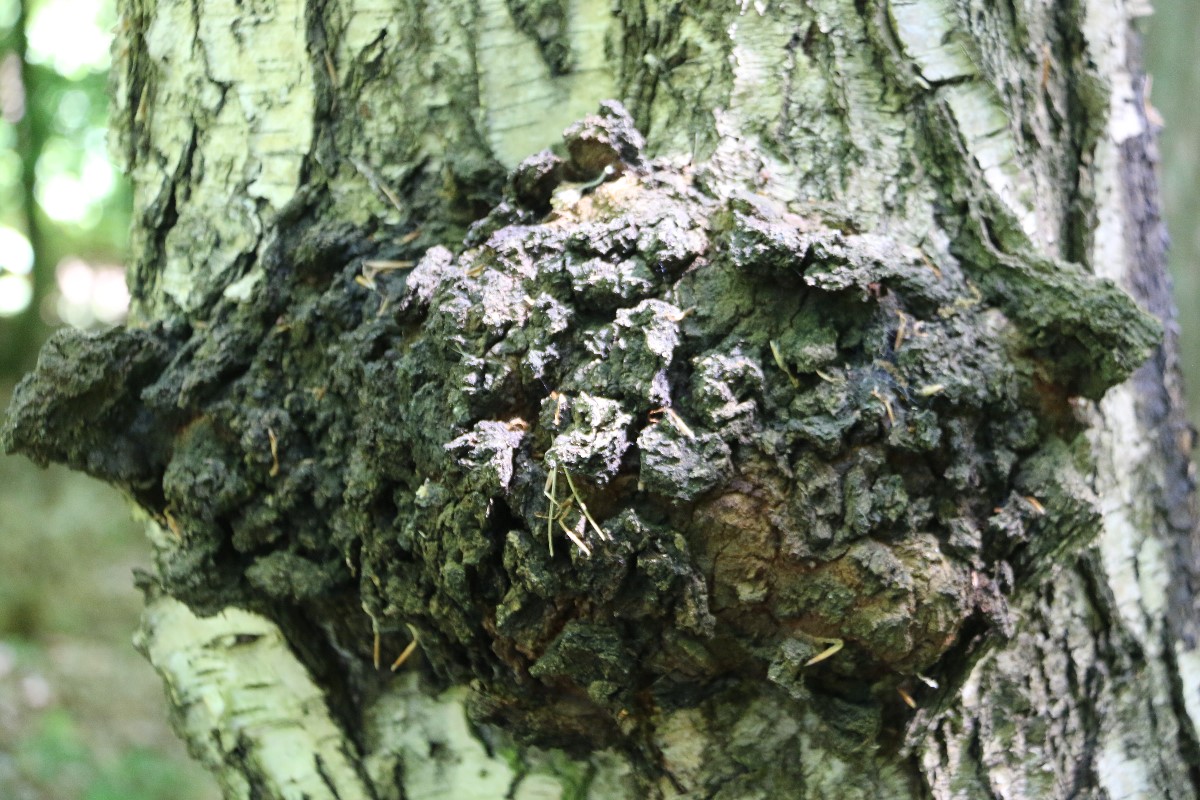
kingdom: Fungi
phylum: Basidiomycota
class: Agaricomycetes
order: Hymenochaetales
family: Hymenochaetaceae
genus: Inonotus
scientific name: Inonotus obliquus
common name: birke-spejlporesvamp
